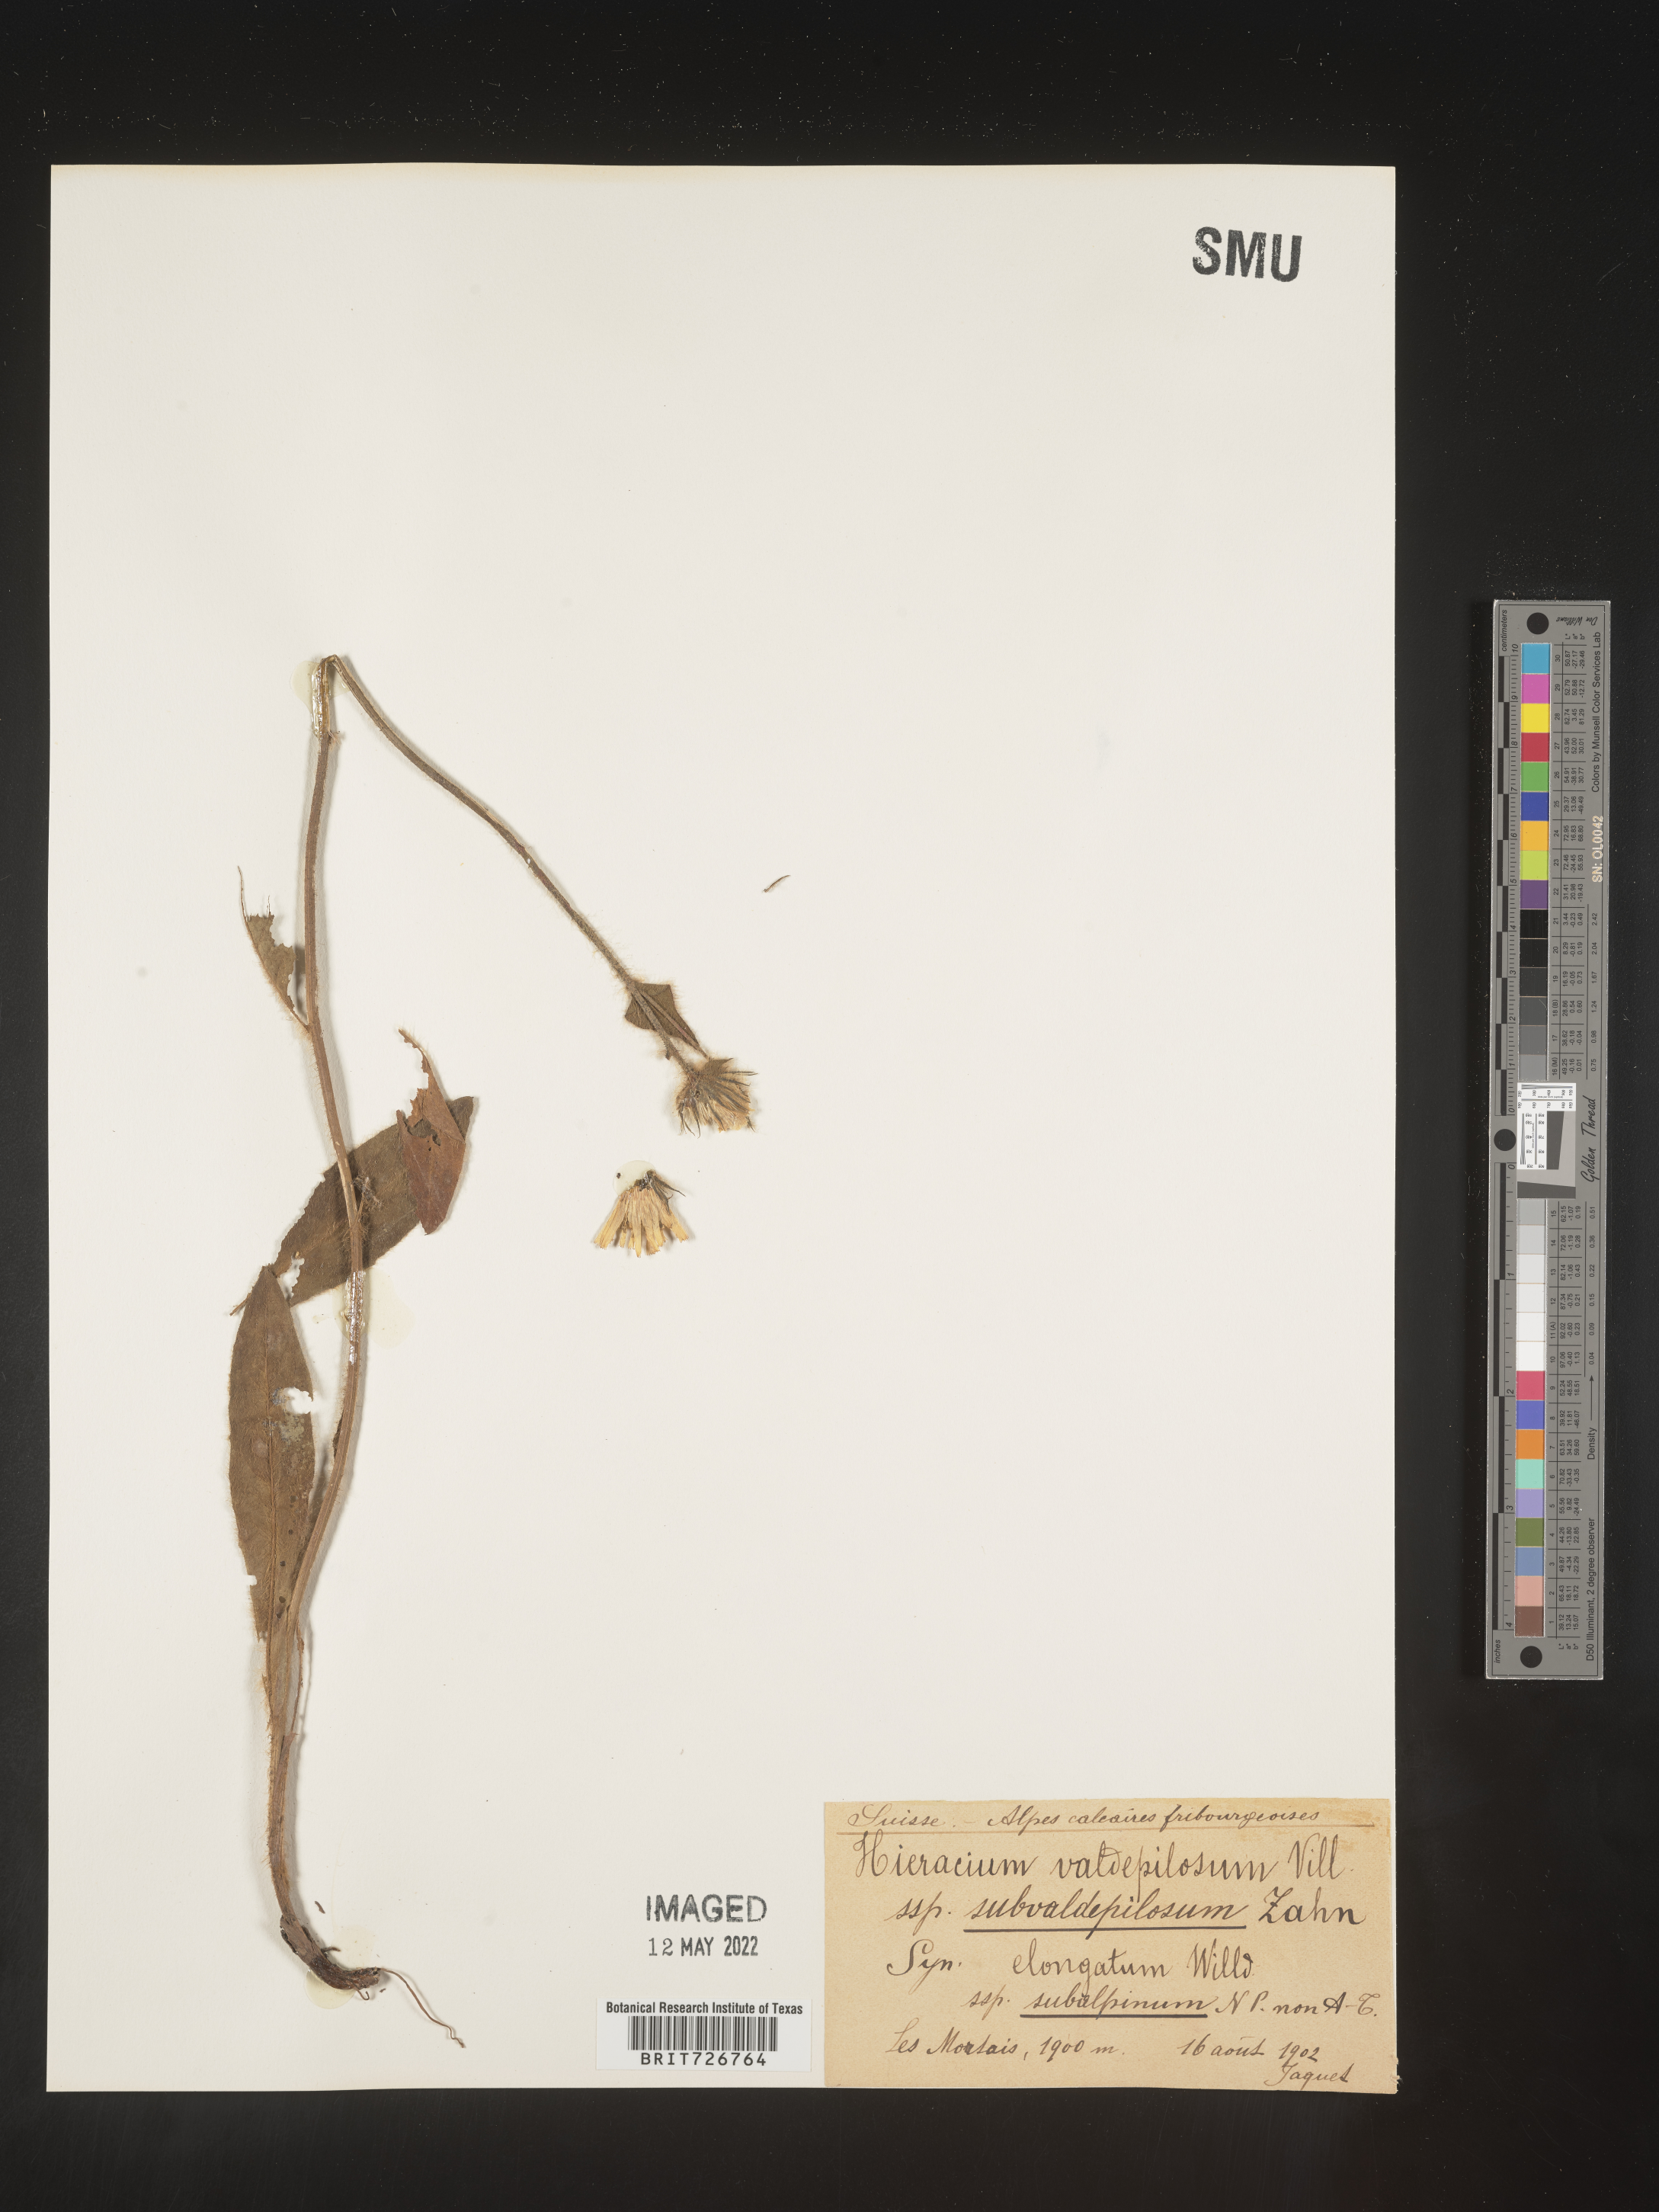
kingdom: Plantae
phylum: Tracheophyta
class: Magnoliopsida
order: Asterales
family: Asteraceae
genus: Hieracium
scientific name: Hieracium
